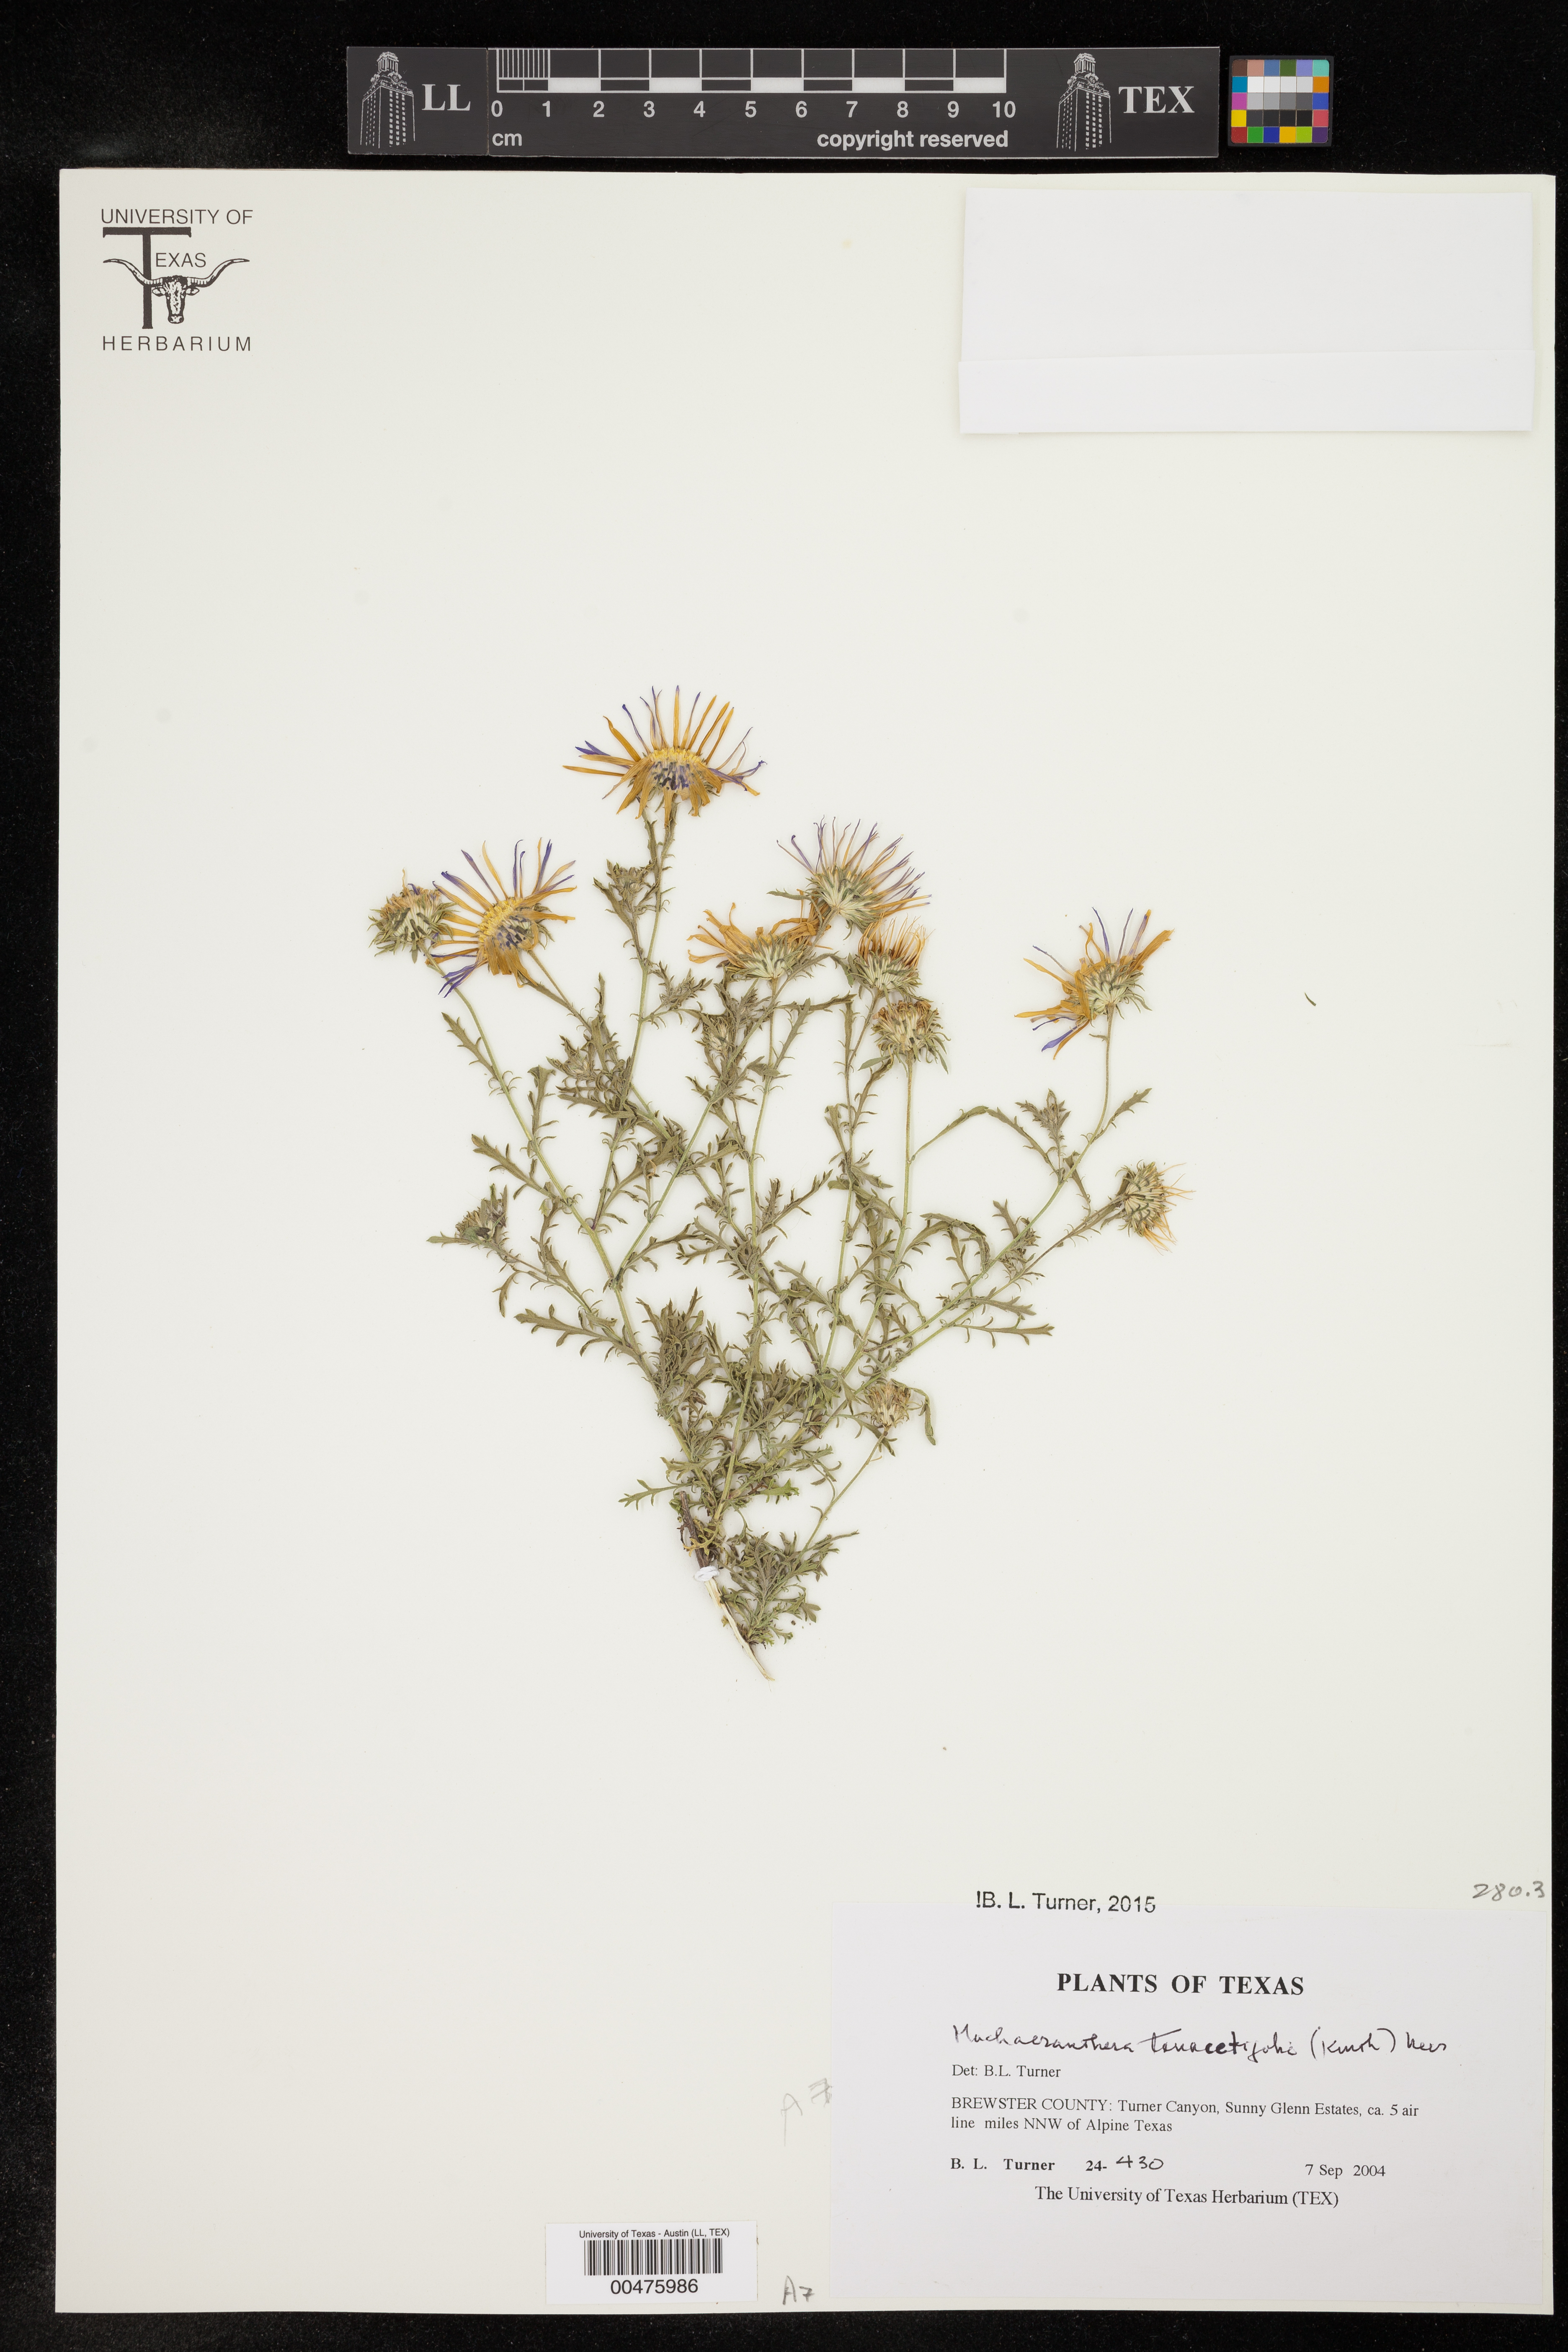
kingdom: Plantae
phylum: Tracheophyta
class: Magnoliopsida
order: Asterales
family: Asteraceae
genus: Machaeranthera
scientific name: Machaeranthera tanacetifolia
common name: Tansy-aster
